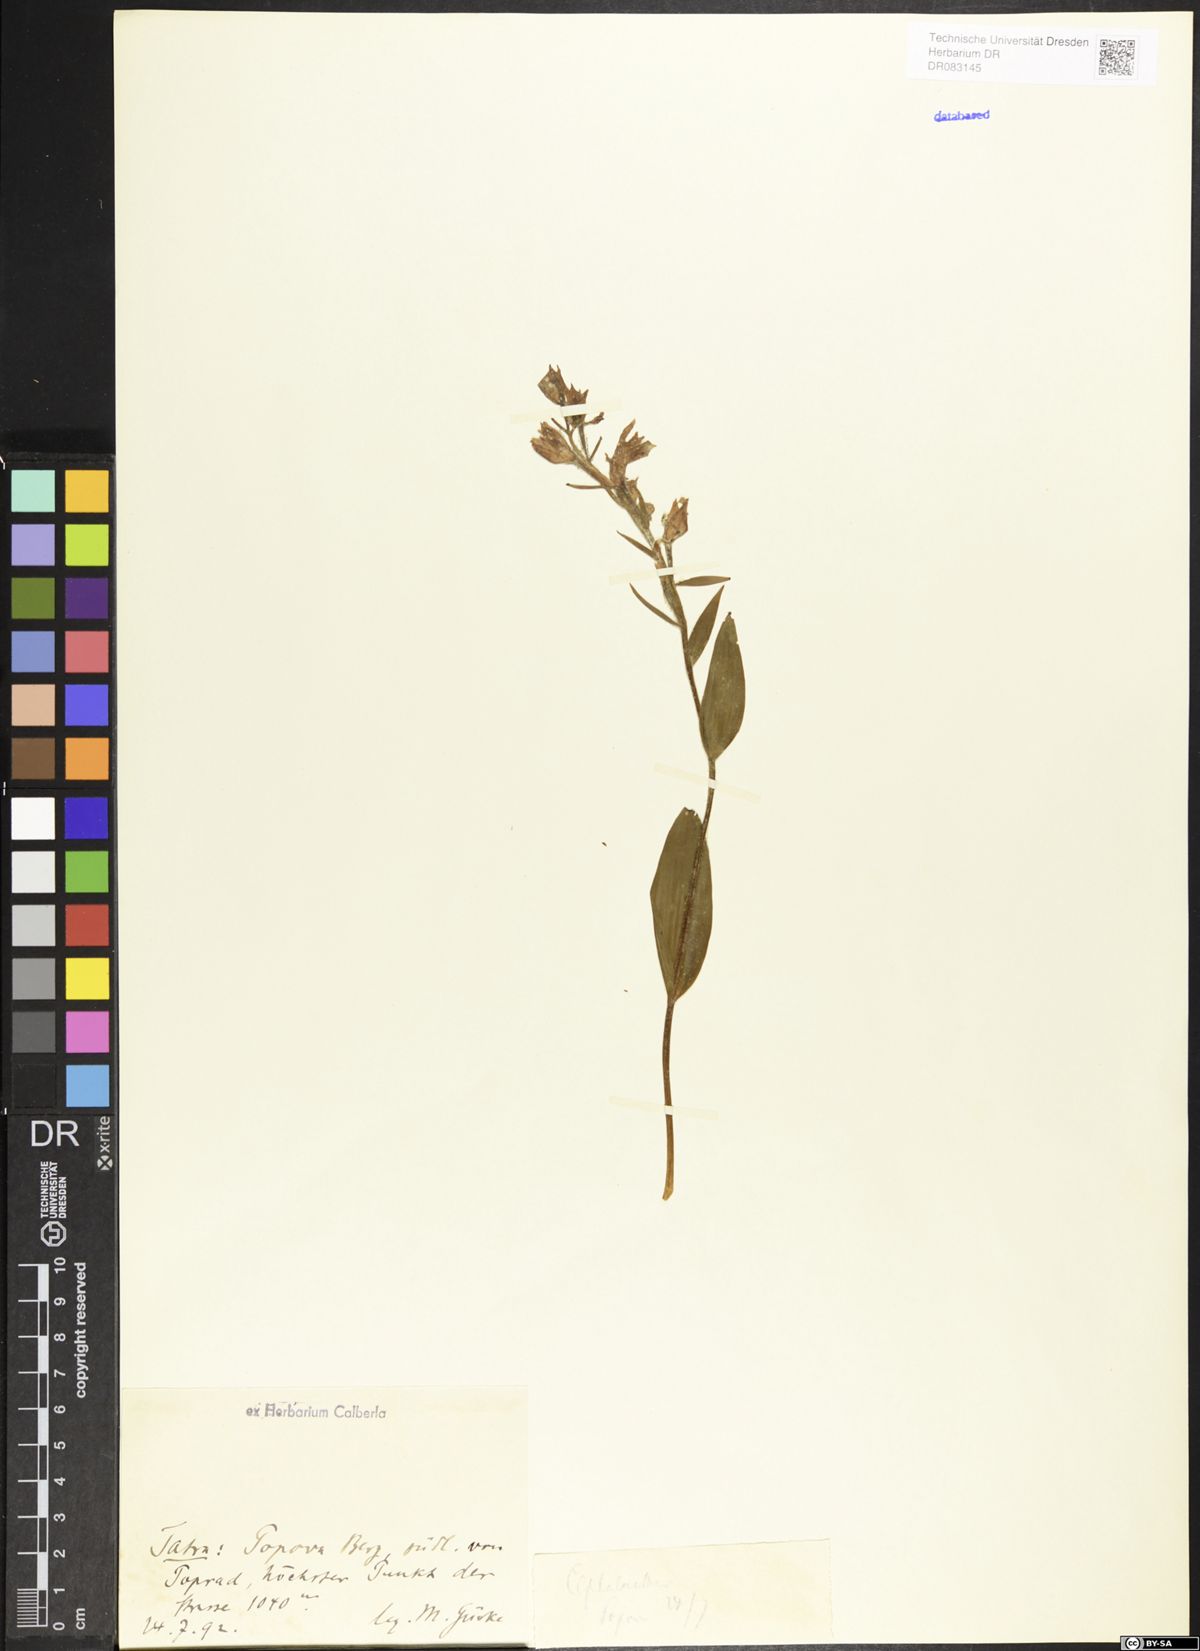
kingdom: Plantae
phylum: Tracheophyta
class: Liliopsida
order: Asparagales
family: Orchidaceae
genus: Cephalanthera
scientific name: Cephalanthera
